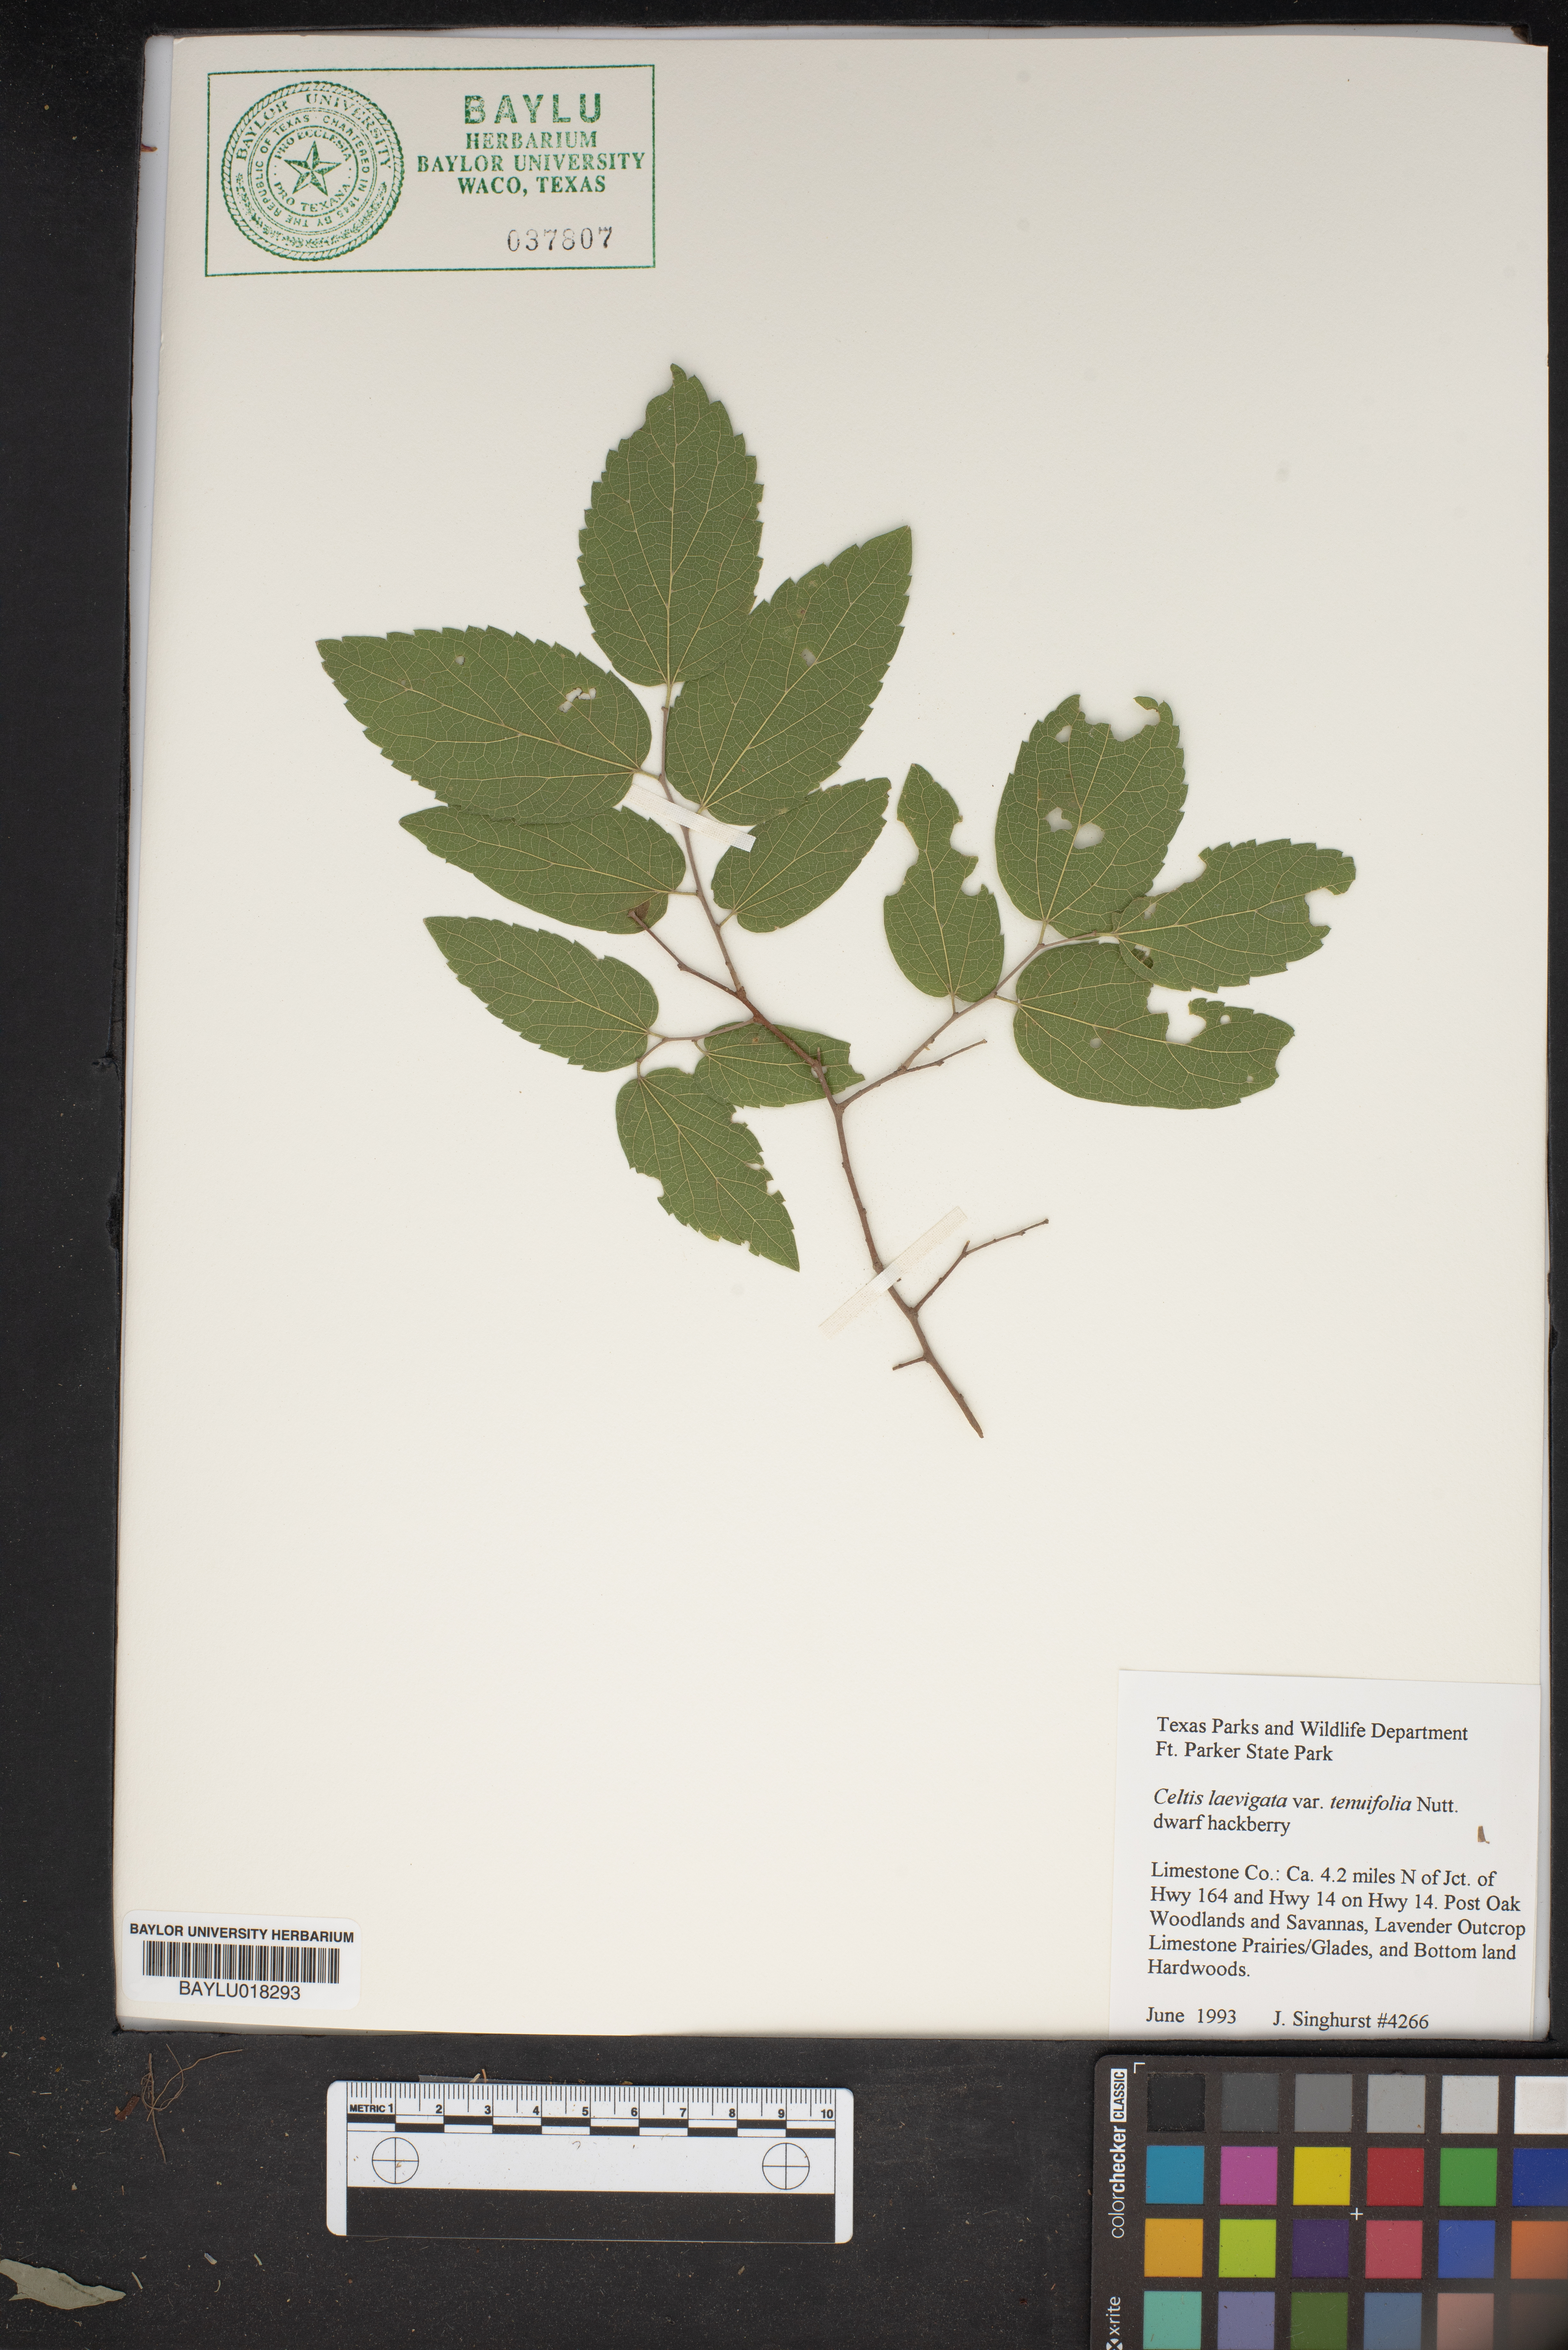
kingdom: Plantae
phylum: Tracheophyta
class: Magnoliopsida
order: Rosales
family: Cannabaceae
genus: Celtis
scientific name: Celtis laevigata
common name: Sugarberry
